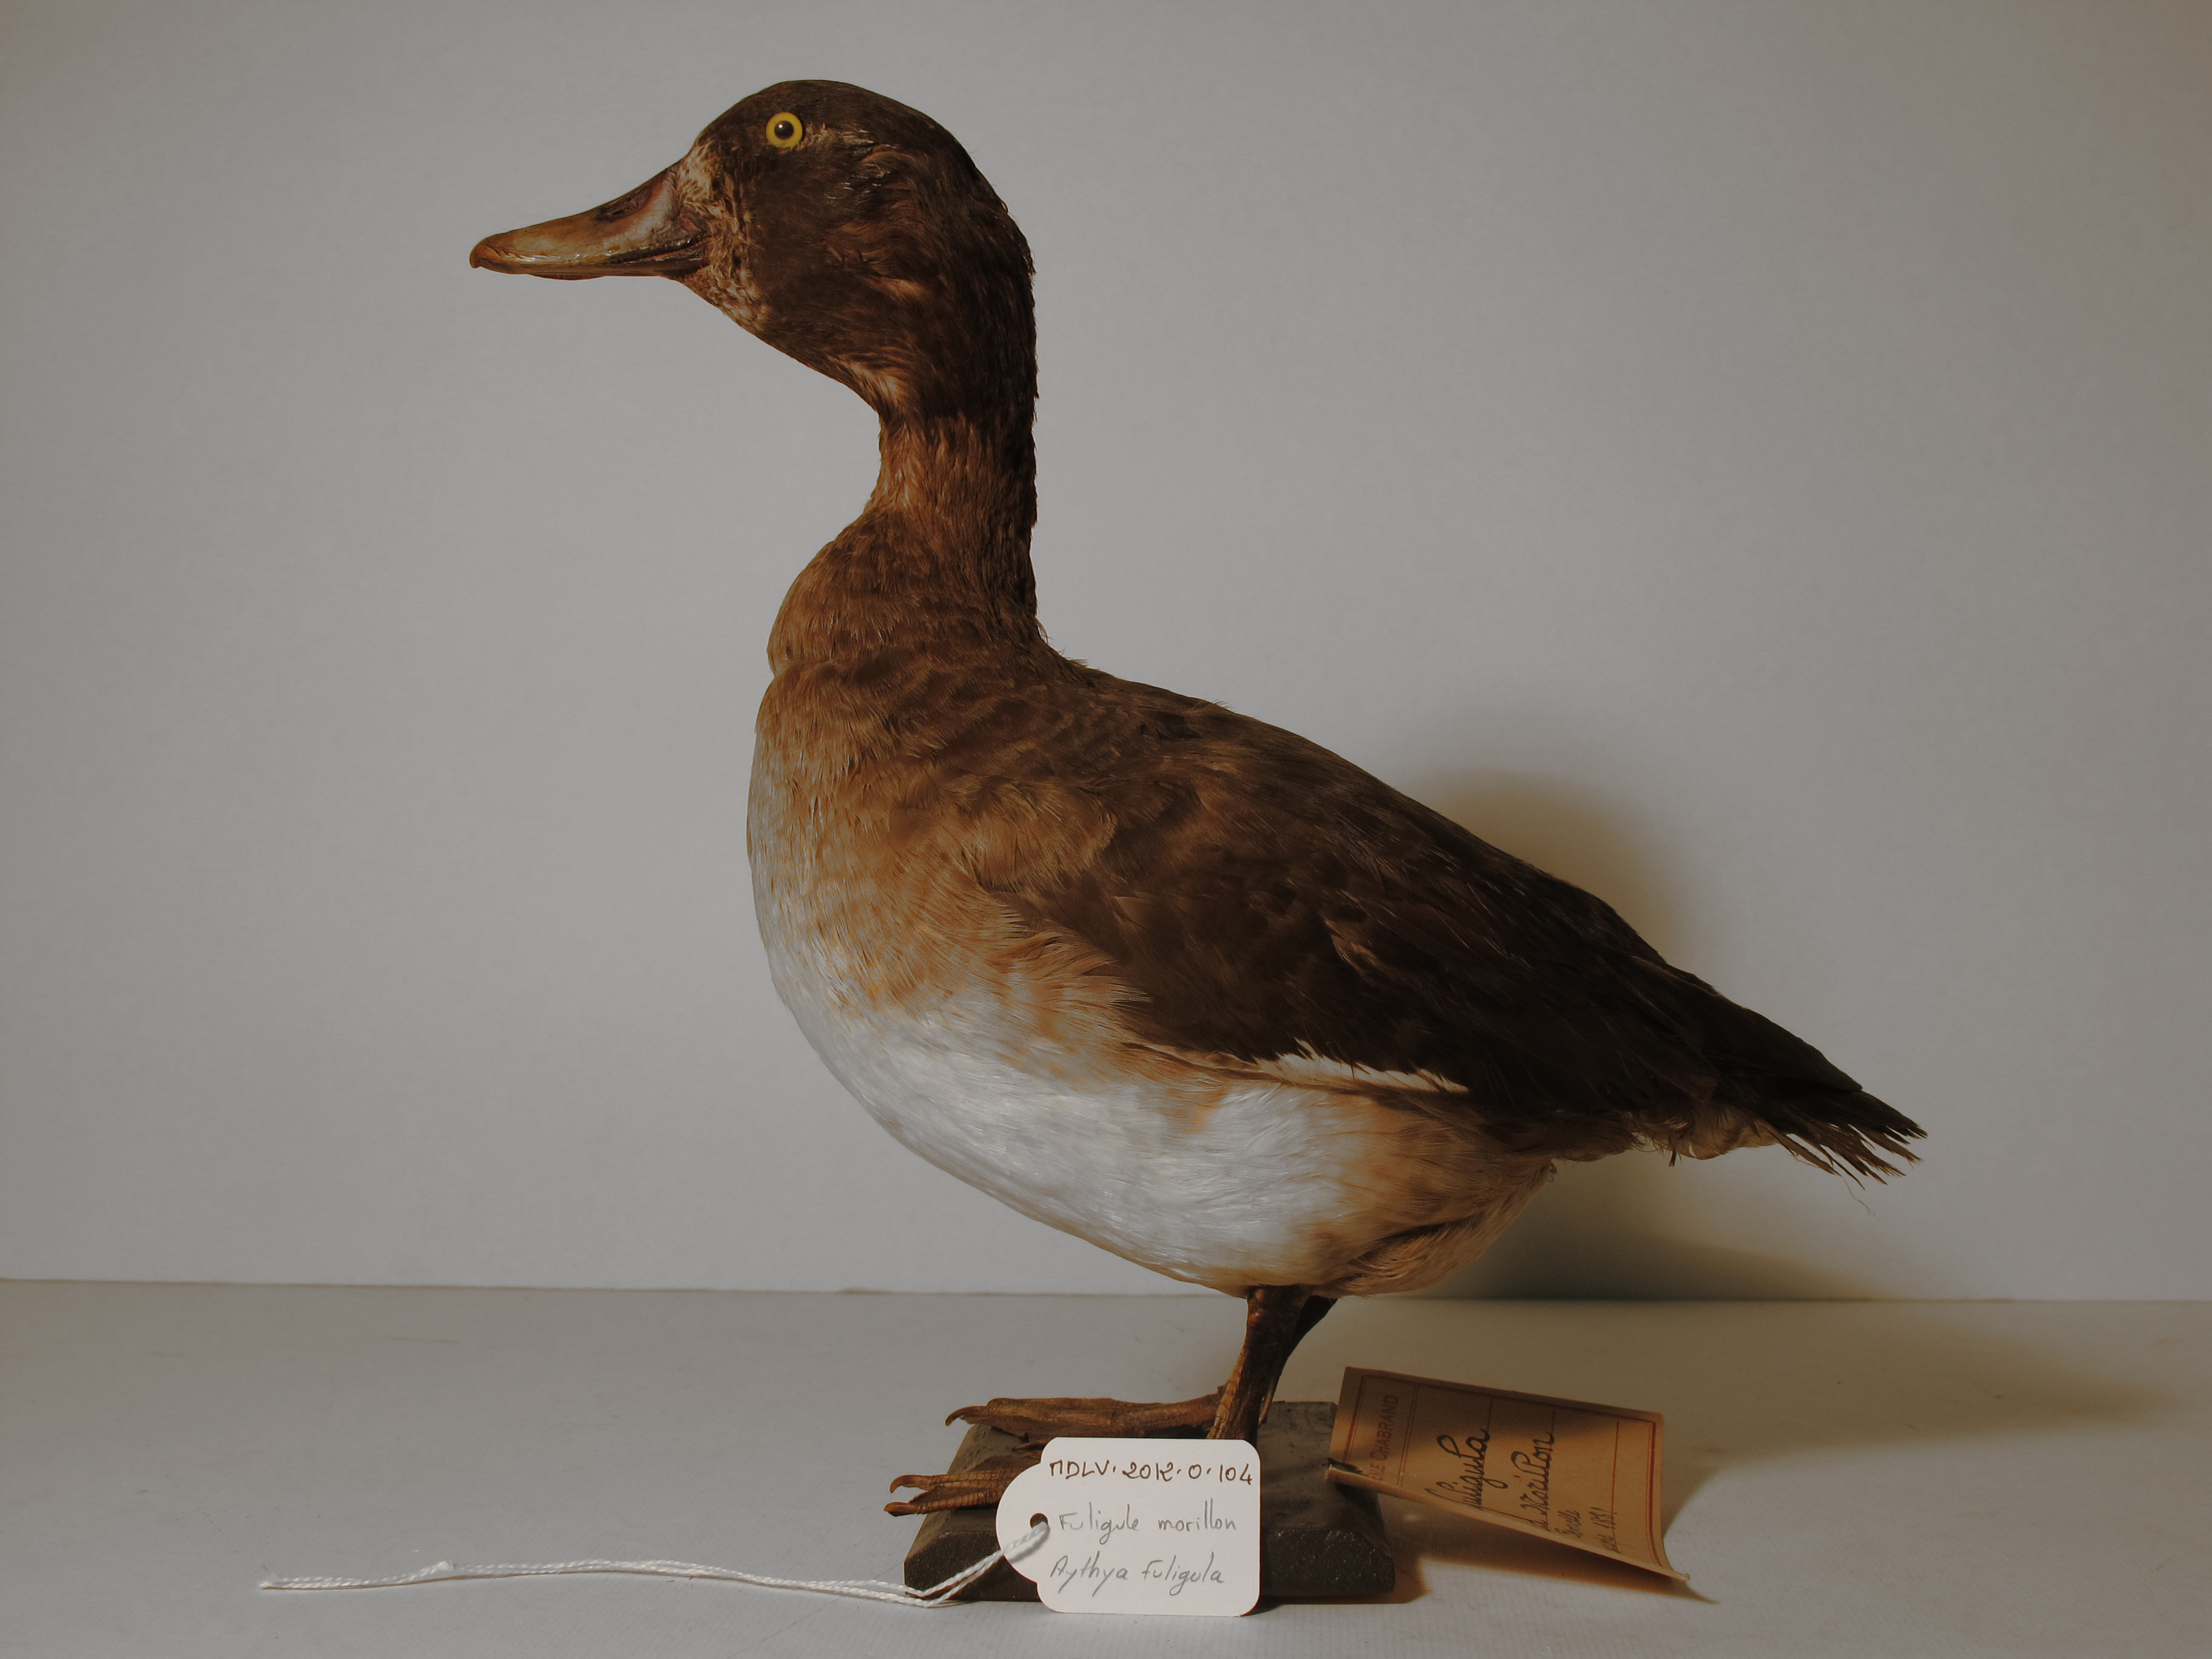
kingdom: Animalia
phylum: Chordata
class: Aves
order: Anseriformes
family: Anatidae
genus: Aythya
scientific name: Aythya fuligula
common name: Tufted Duck
